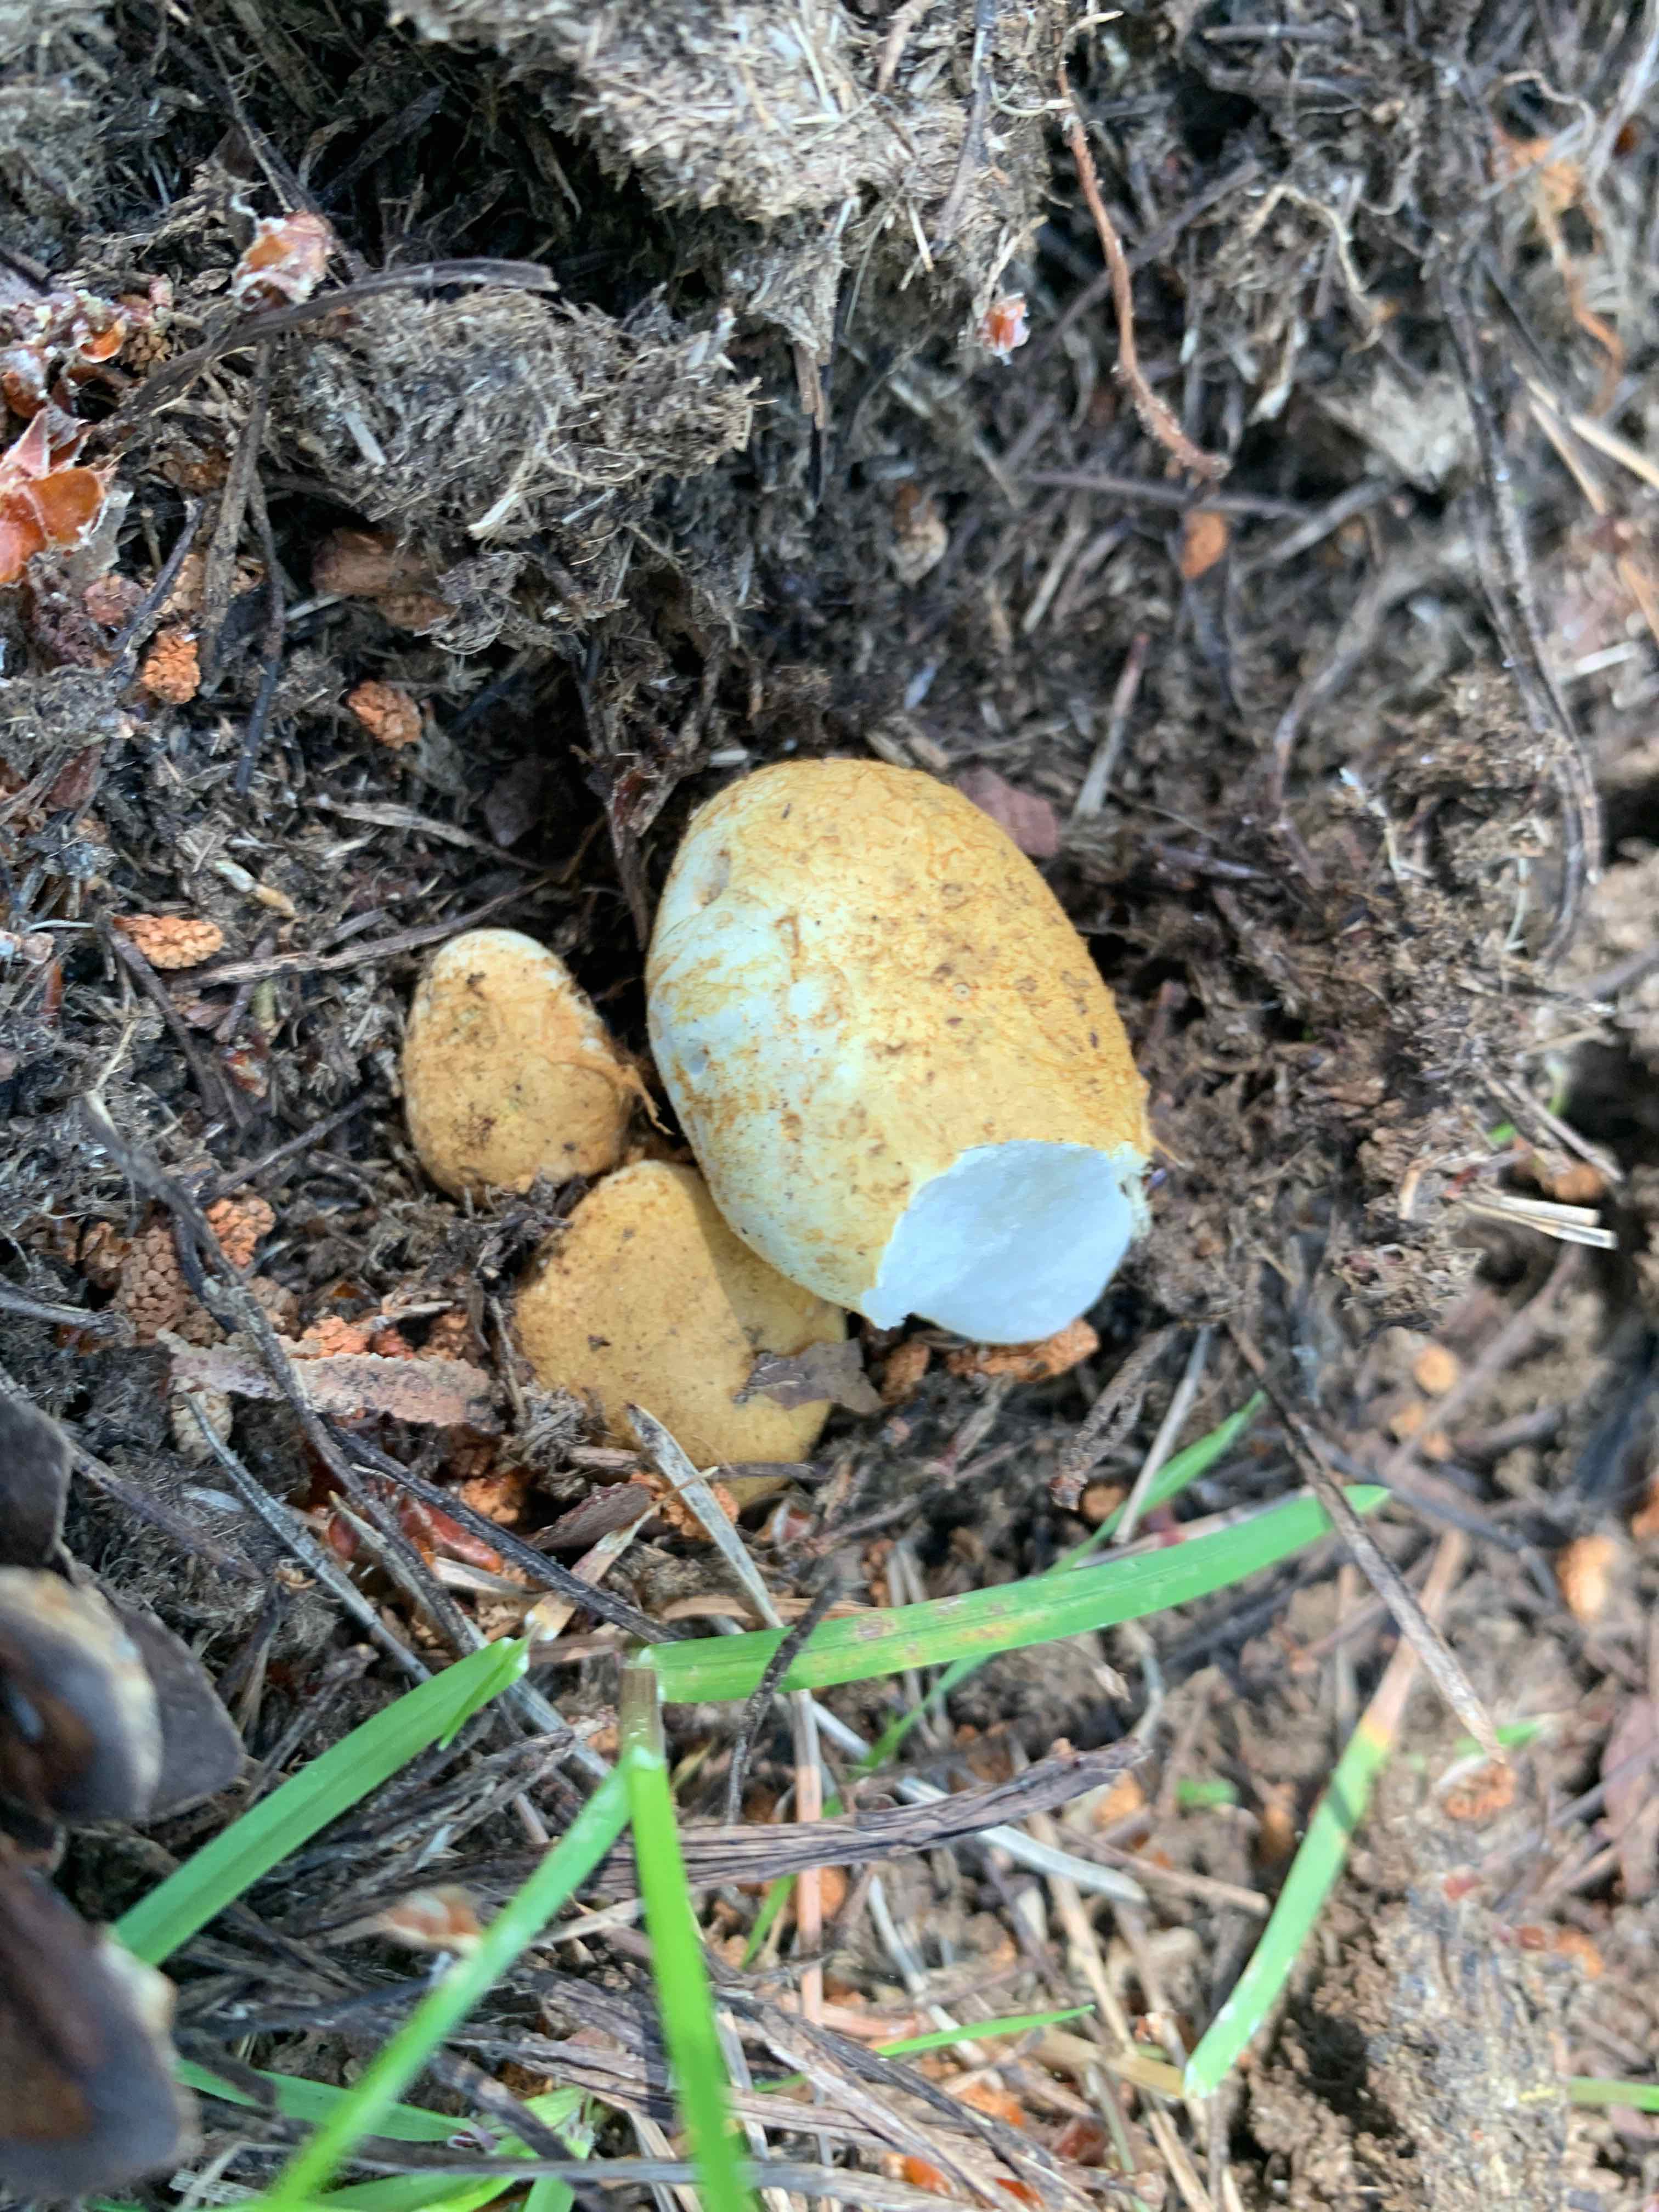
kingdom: Fungi
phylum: Basidiomycota
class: Agaricomycetes
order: Boletales
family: Rhizopogonaceae
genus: Rhizopogon
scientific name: Rhizopogon obtextus
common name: gul skægtrøffel
